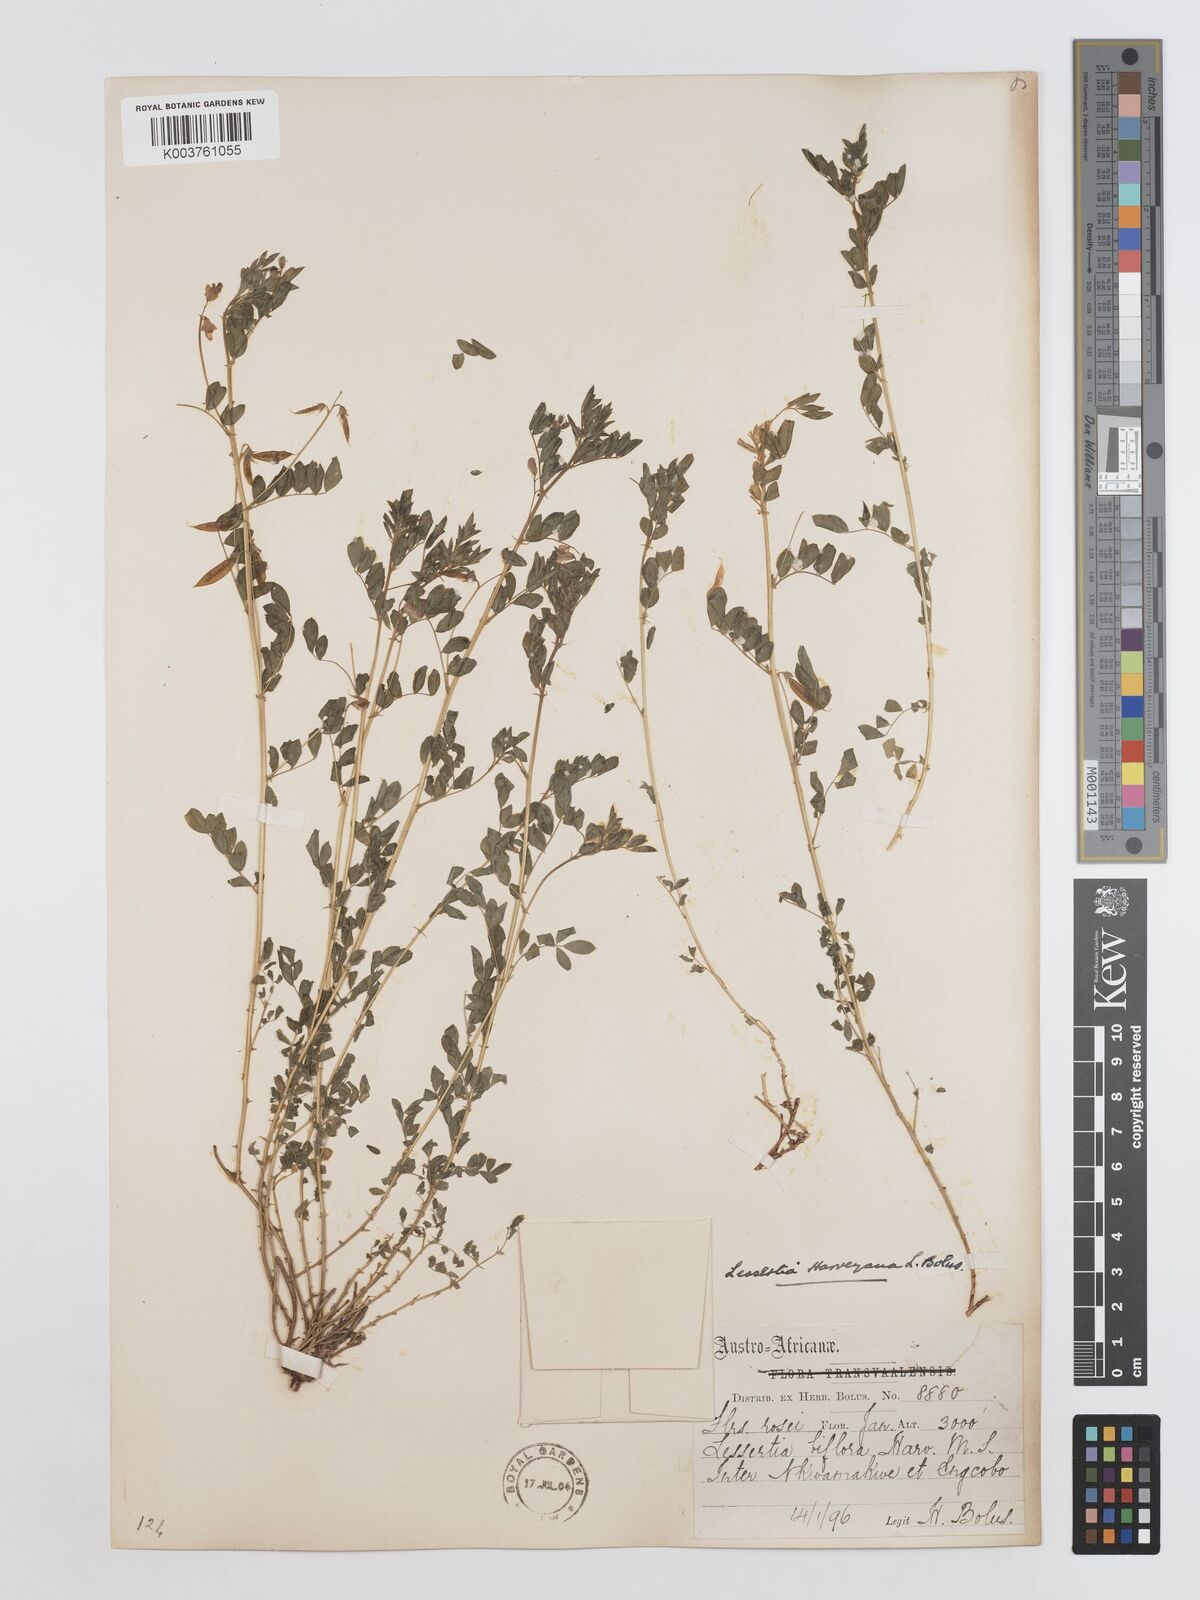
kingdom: Plantae
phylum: Tracheophyta
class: Magnoliopsida
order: Fabales
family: Fabaceae
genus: Lessertia
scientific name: Lessertia harveyana
